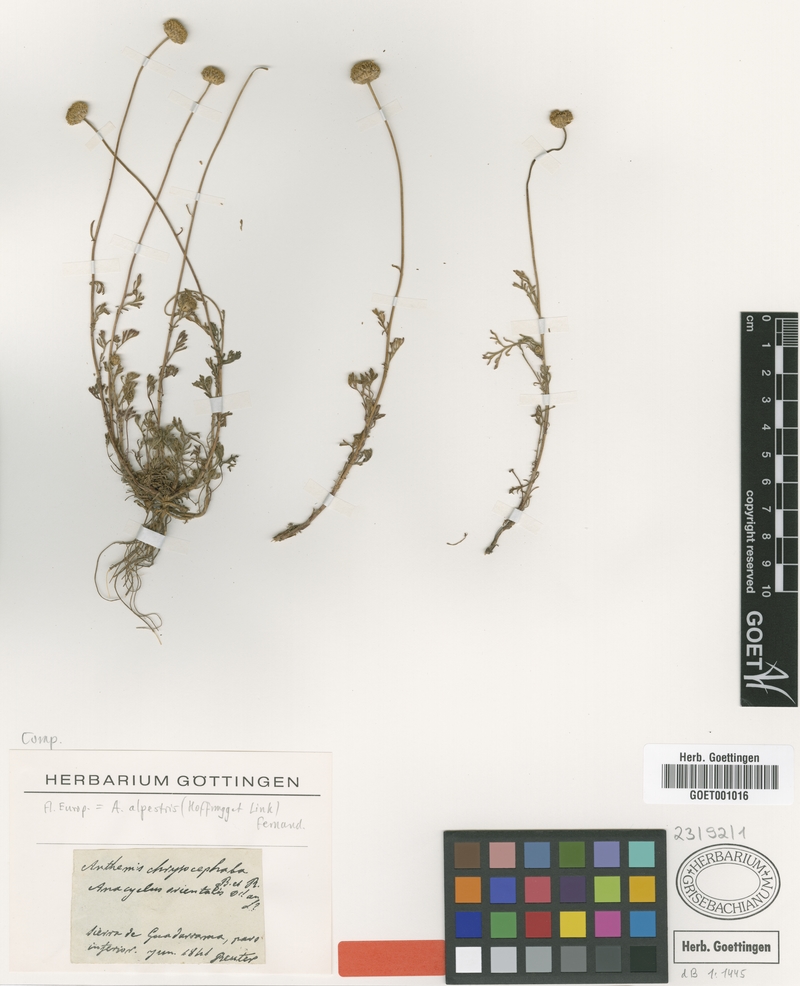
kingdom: Plantae
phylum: Tracheophyta
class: Magnoliopsida
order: Asterales
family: Asteraceae
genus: Anthemis
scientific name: Anthemis alpestris
